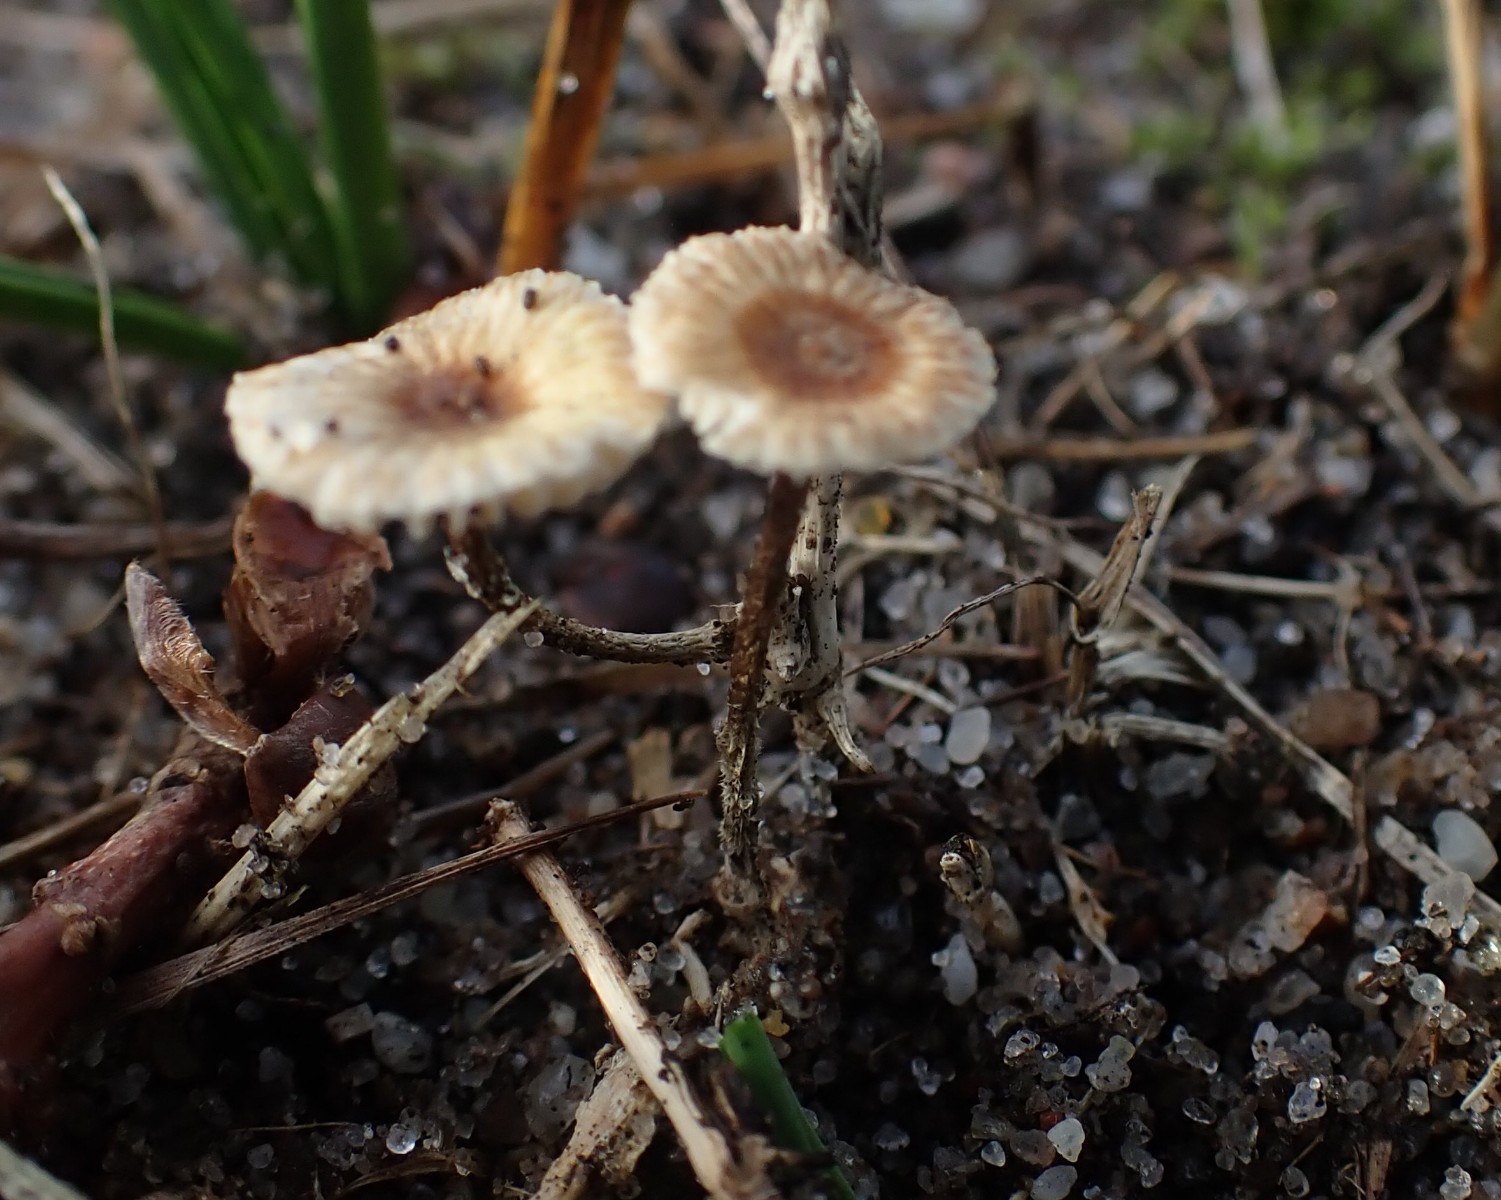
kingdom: Fungi
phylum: Basidiomycota
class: Agaricomycetes
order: Agaricales
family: Marasmiaceae
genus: Crinipellis
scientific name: Crinipellis scabella
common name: børstefod
